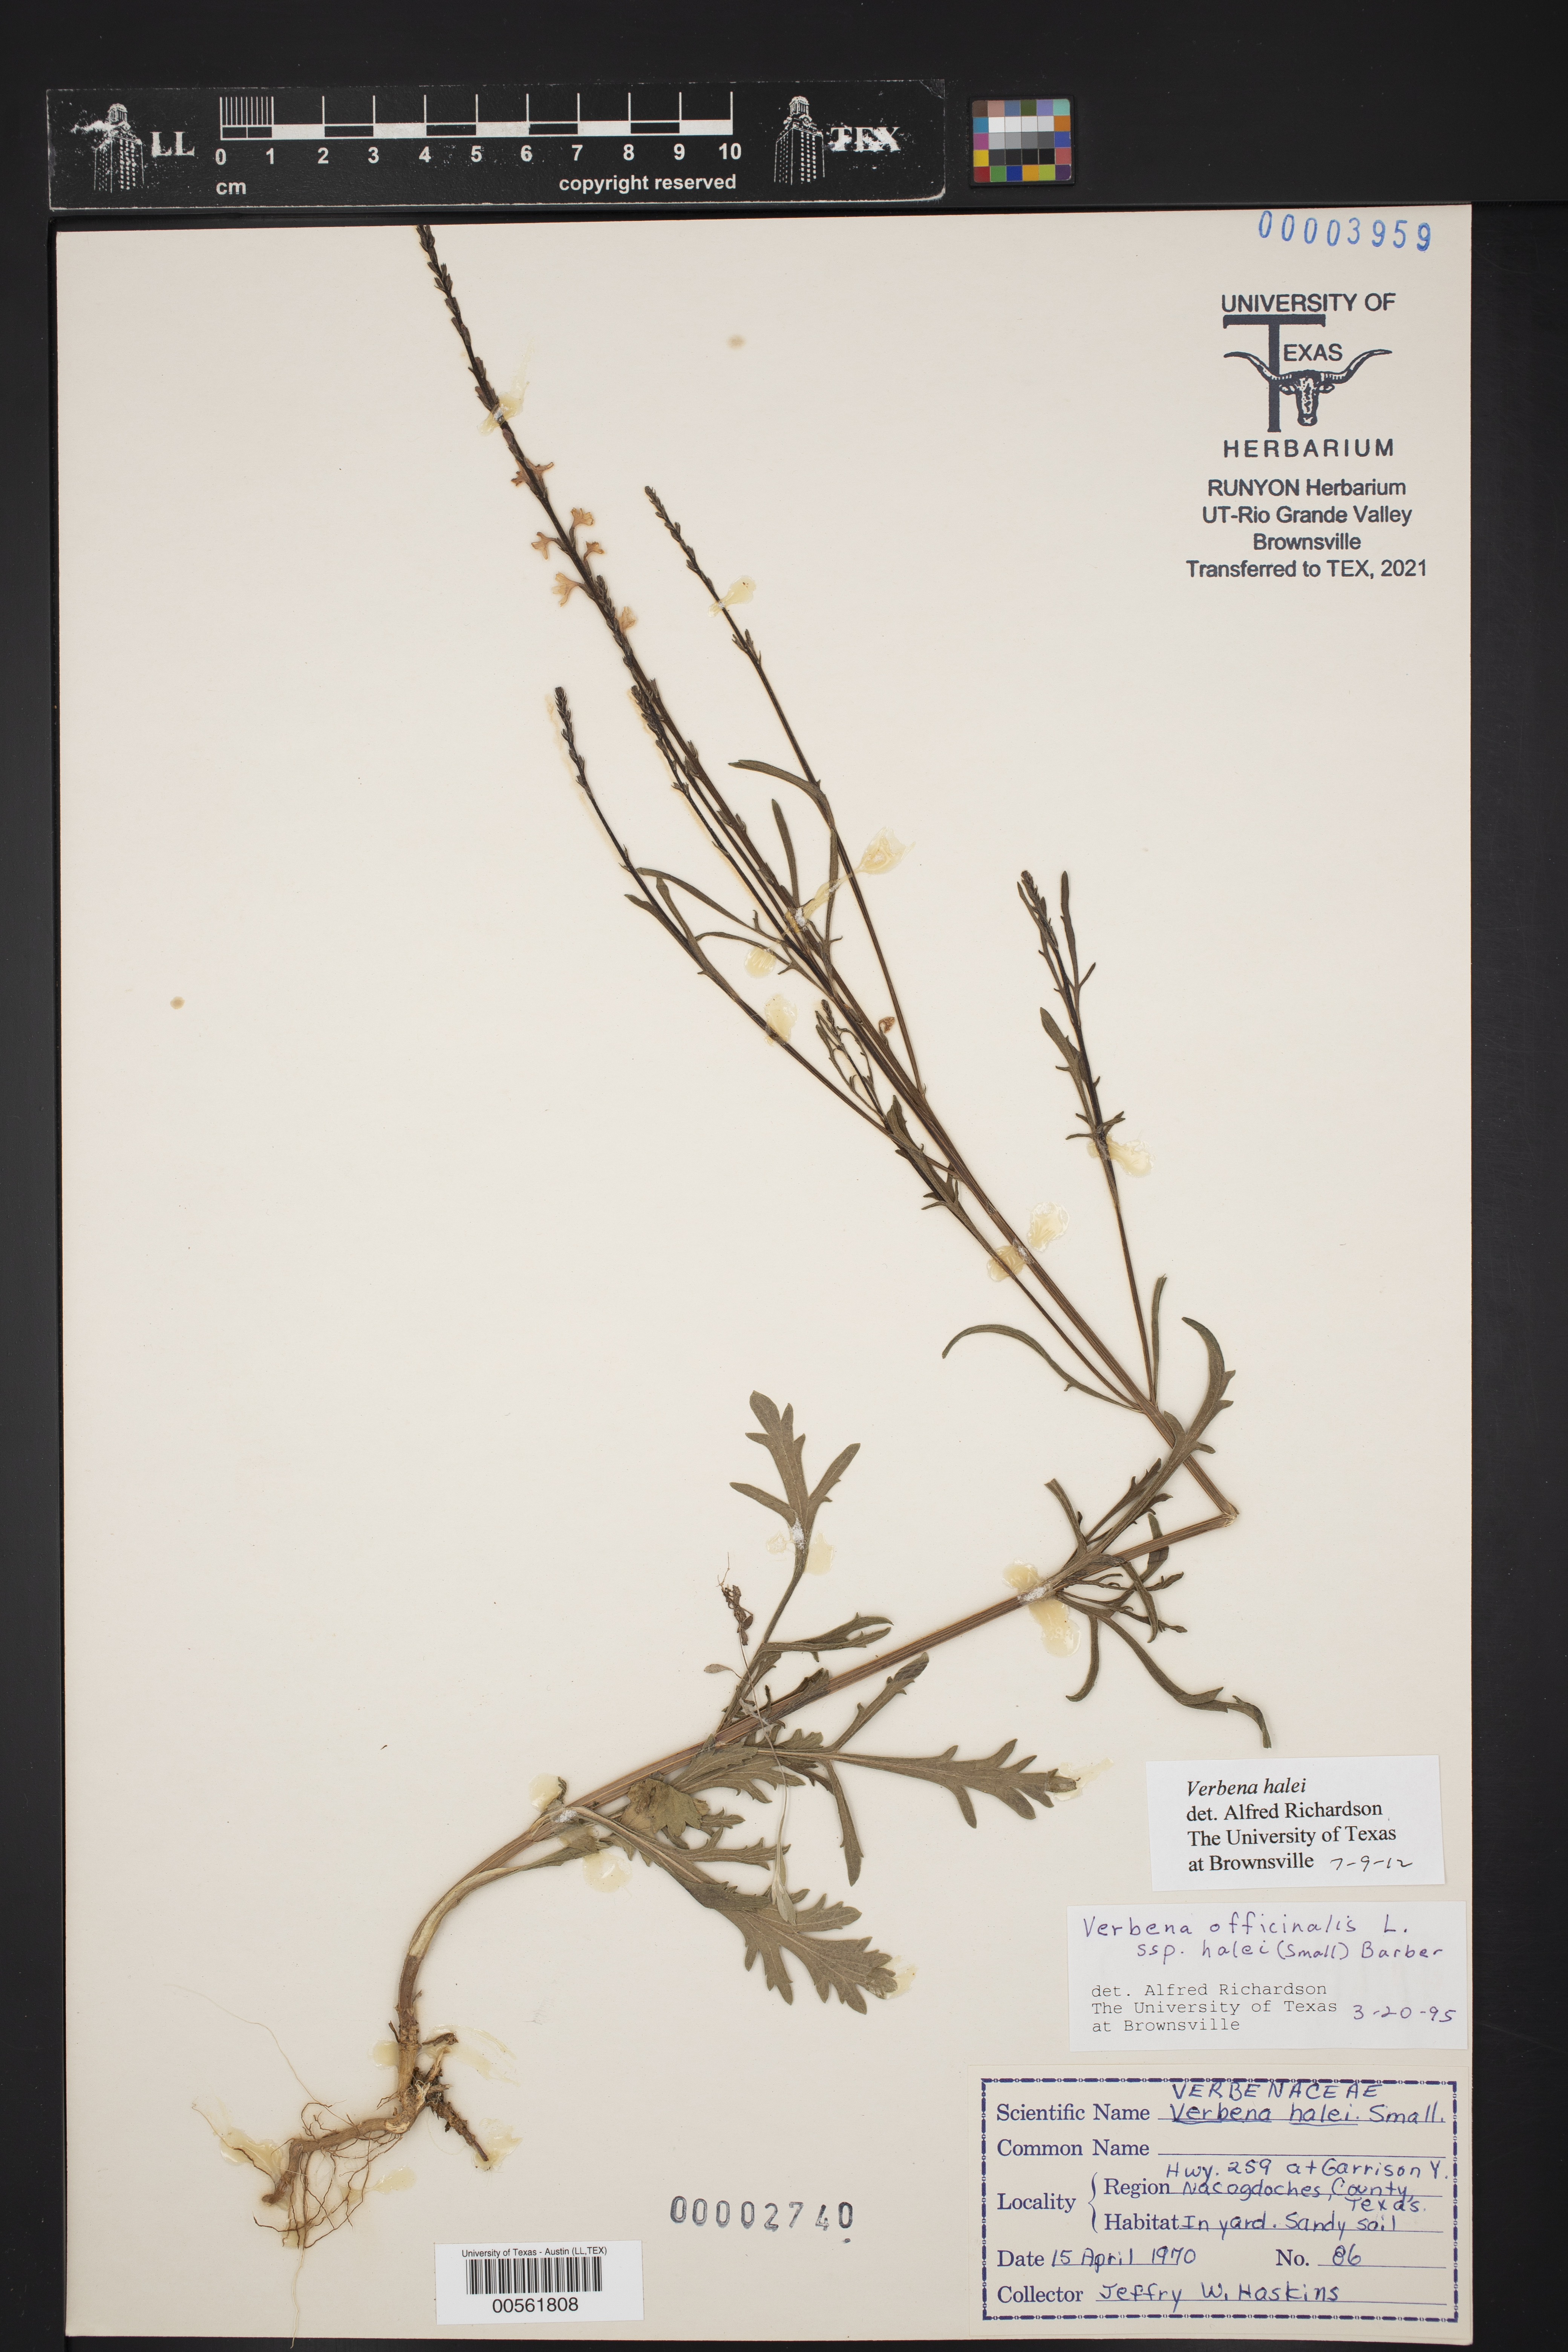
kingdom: Plantae
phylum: Tracheophyta
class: Magnoliopsida
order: Lamiales
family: Verbenaceae
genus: Verbena
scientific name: Verbena halei
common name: Texas vervain
